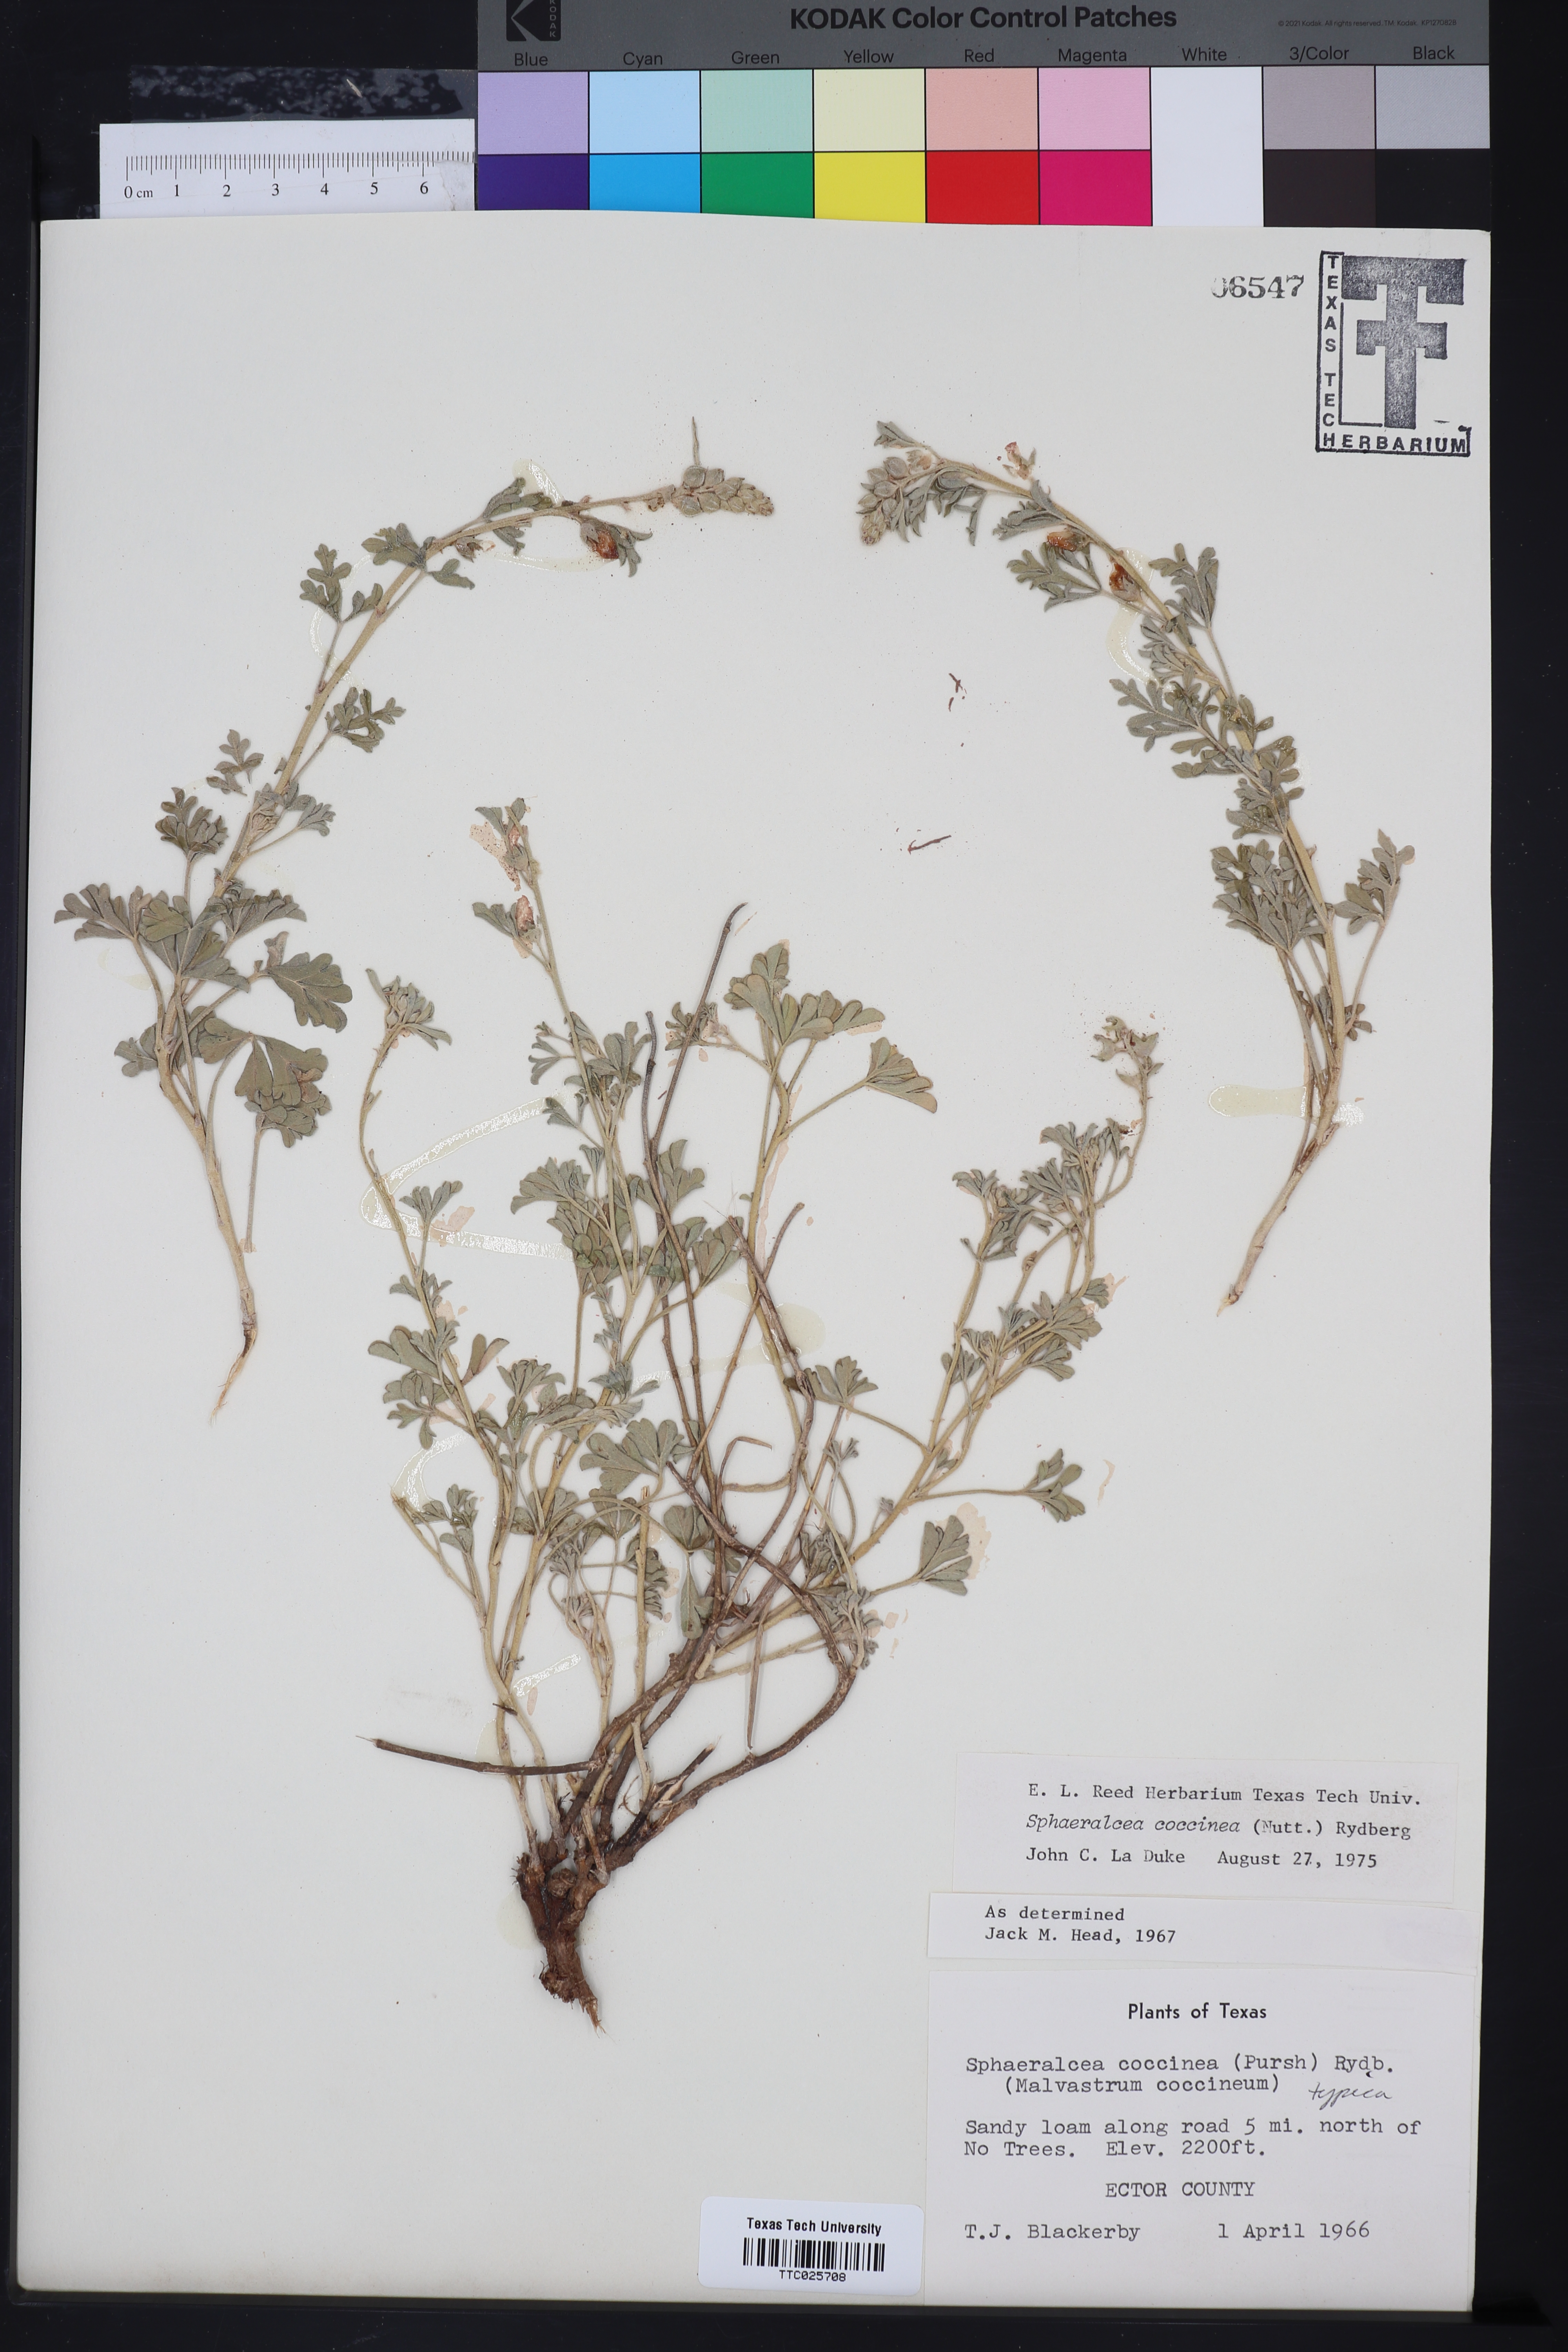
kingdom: Plantae
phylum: Tracheophyta
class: Magnoliopsida
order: Malvales
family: Malvaceae
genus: Sphaeralcea
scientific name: Sphaeralcea coccinea
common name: Moss-rose
